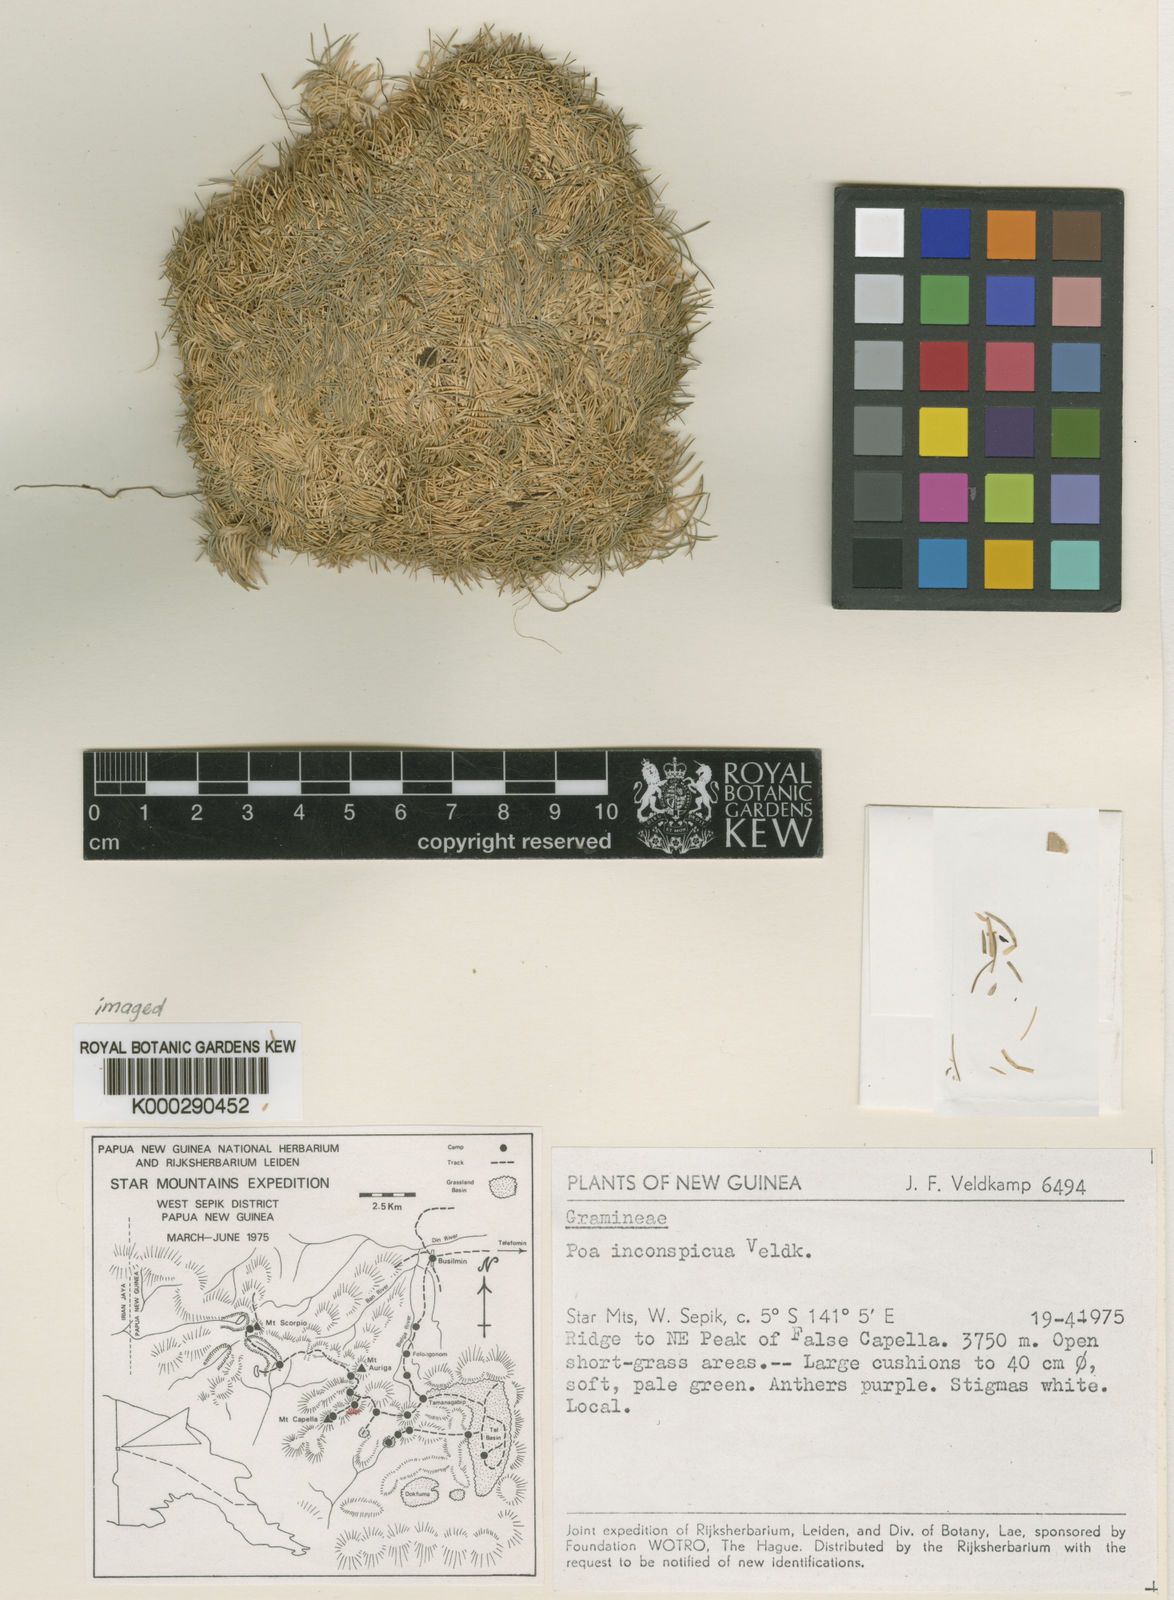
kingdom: Plantae
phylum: Tracheophyta
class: Liliopsida
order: Poales
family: Poaceae
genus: Poa
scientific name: Poa inconspicua
